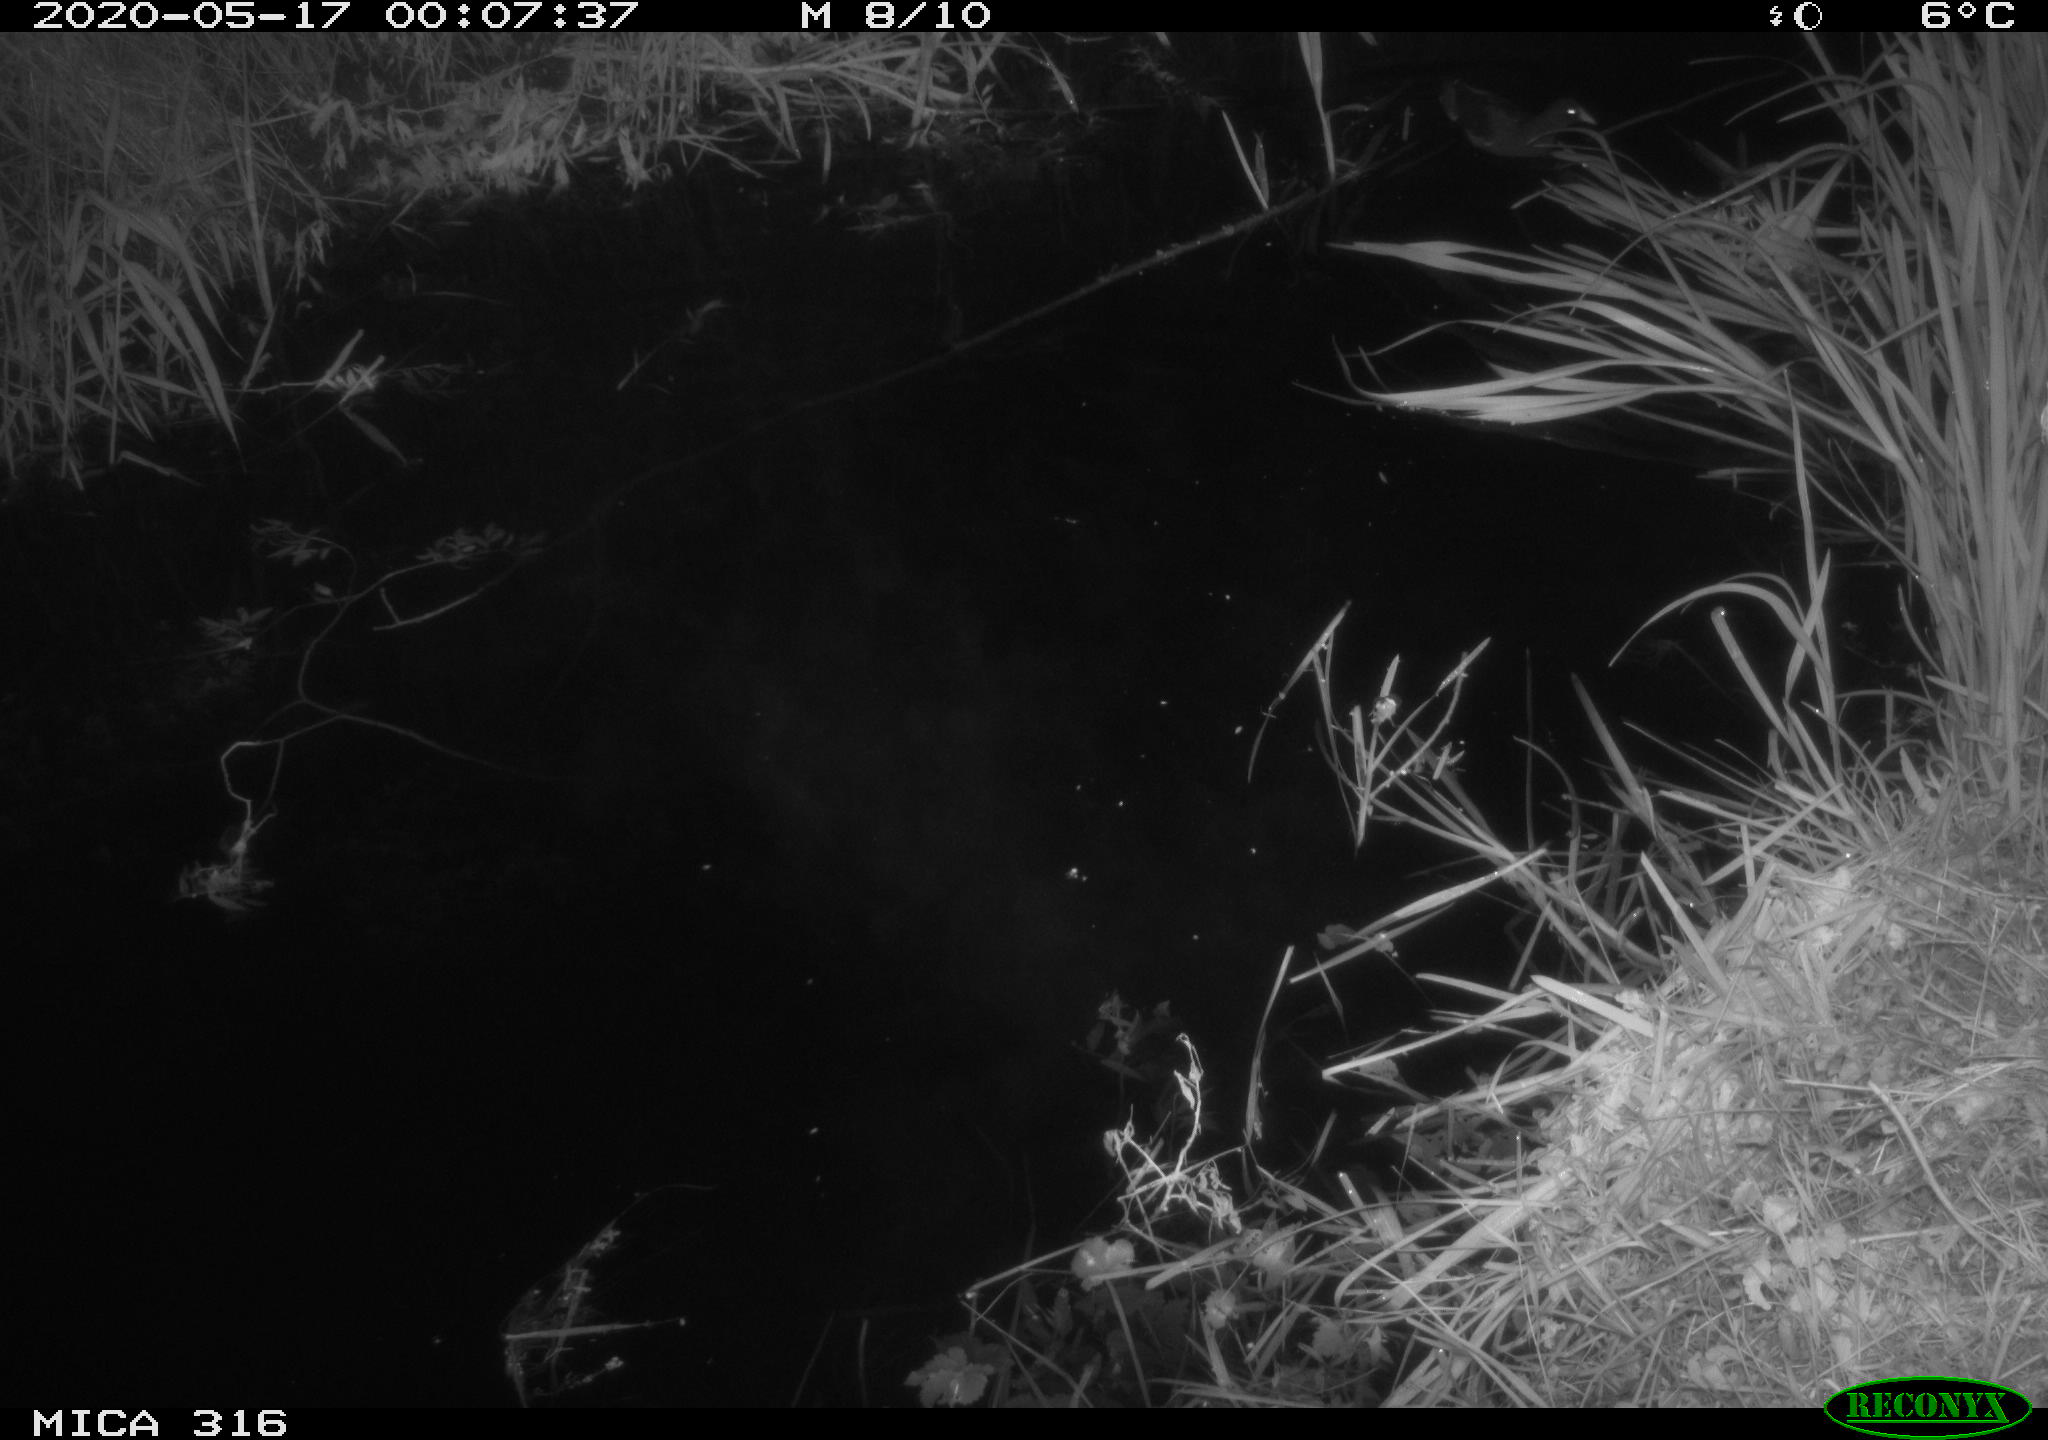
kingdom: Animalia
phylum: Chordata
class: Aves
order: Gruiformes
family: Rallidae
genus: Gallinula
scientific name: Gallinula chloropus
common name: Common moorhen
